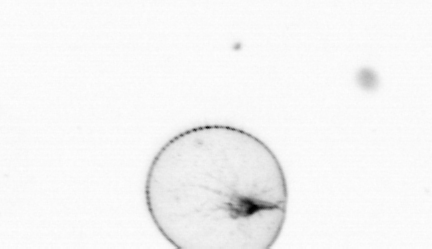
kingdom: Chromista
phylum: Myzozoa
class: Dinophyceae
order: Noctilucales
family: Noctilucaceae
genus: Noctiluca
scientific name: Noctiluca scintillans
